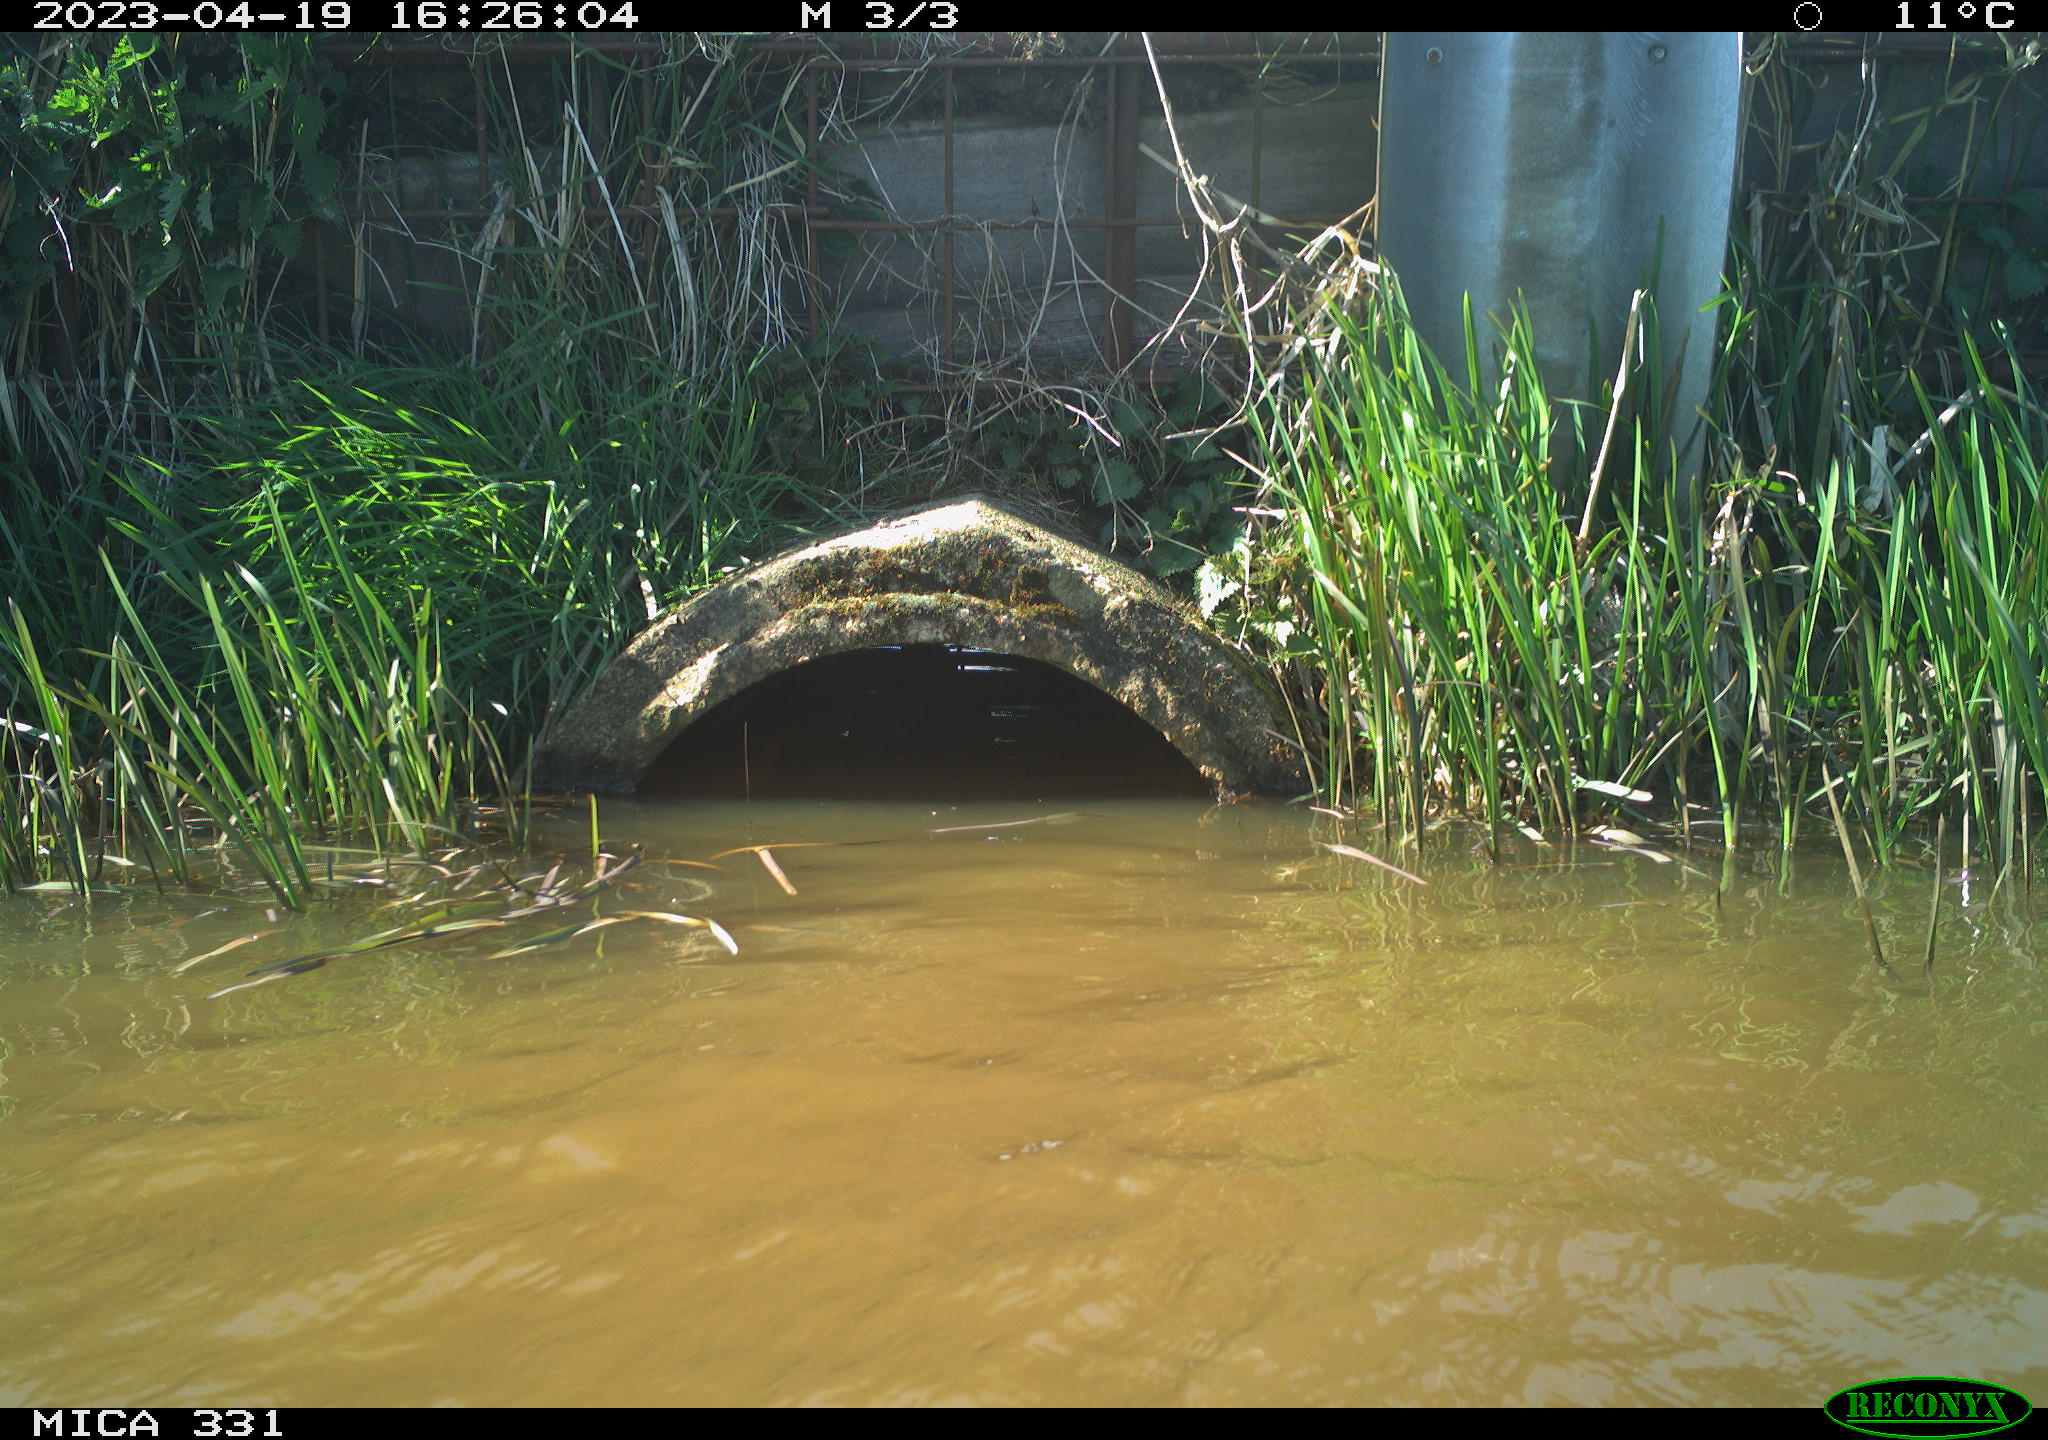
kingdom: Animalia
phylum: Chordata
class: Aves
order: Gruiformes
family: Rallidae
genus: Fulica
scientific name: Fulica atra
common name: Eurasian coot
